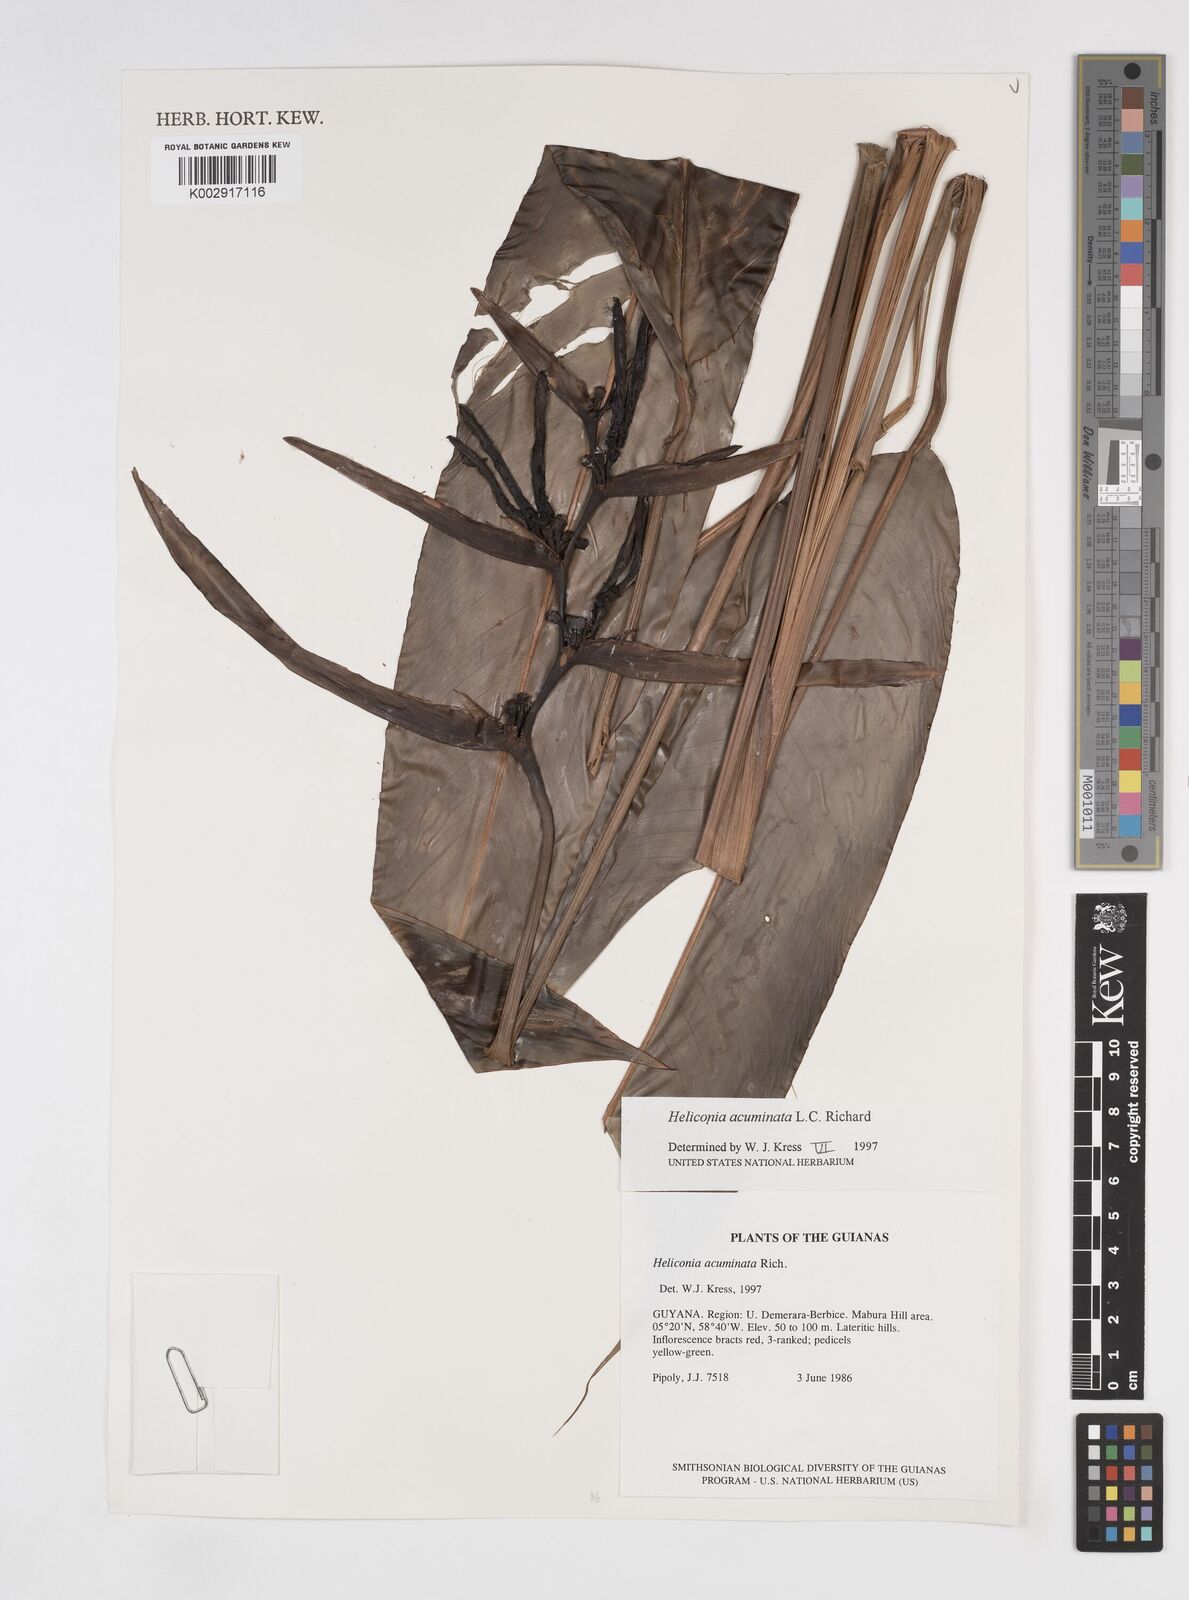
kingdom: Plantae
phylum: Tracheophyta
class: Liliopsida
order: Zingiberales
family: Heliconiaceae
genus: Heliconia
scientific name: Heliconia acuminata
